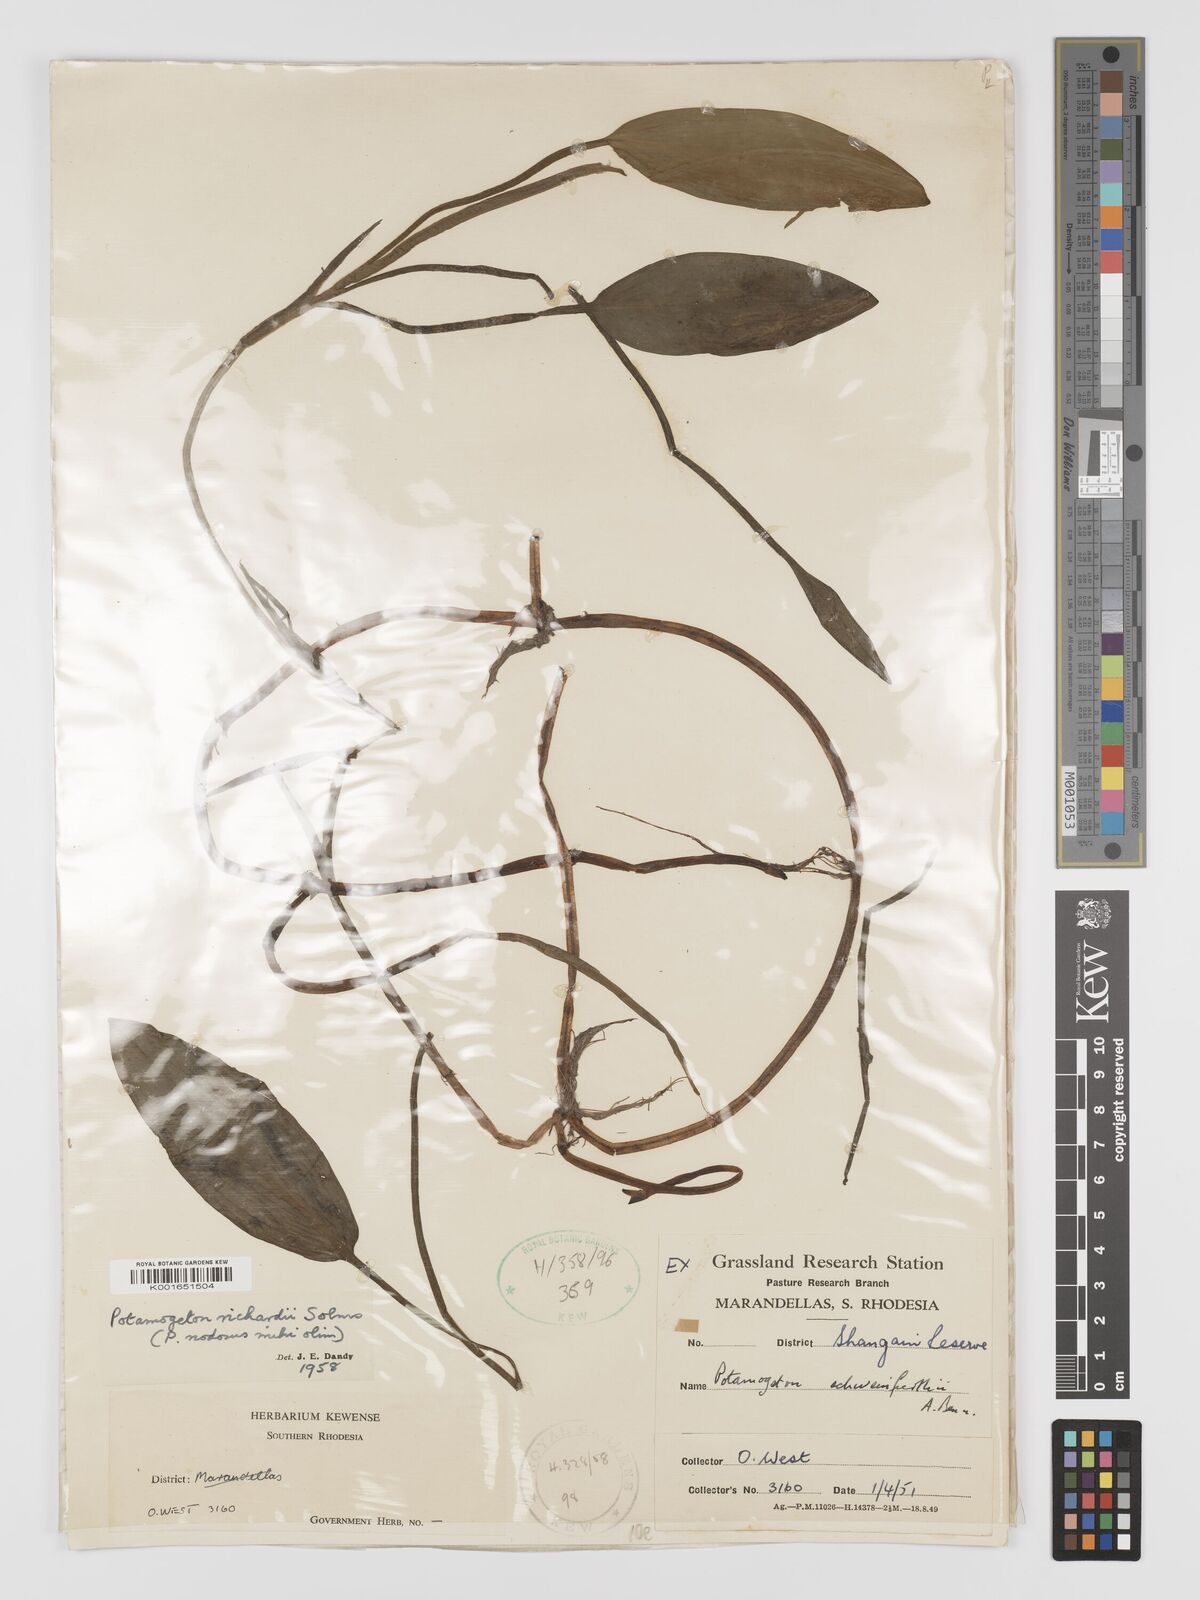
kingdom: Plantae
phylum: Tracheophyta
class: Liliopsida
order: Alismatales
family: Potamogetonaceae
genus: Potamogeton
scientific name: Potamogeton nodosus
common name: Loddon pondweed
